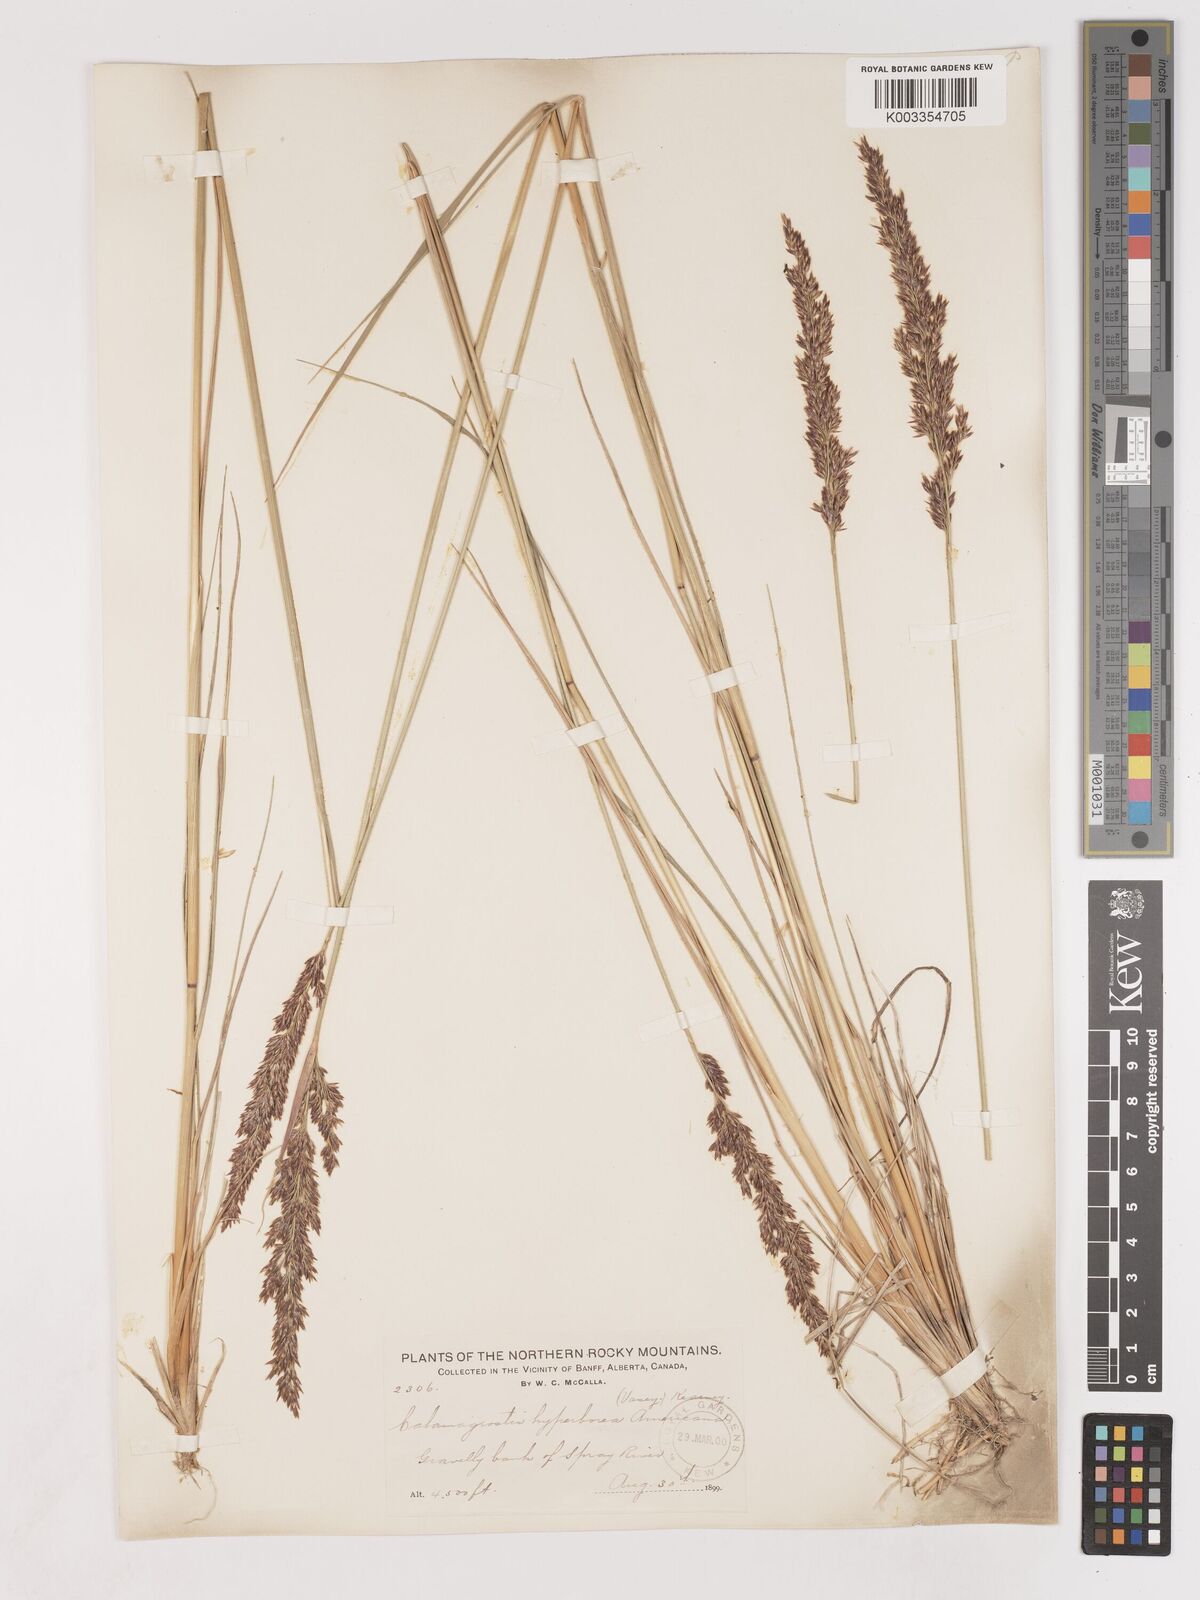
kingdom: Plantae
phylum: Tracheophyta
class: Liliopsida
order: Poales
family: Poaceae
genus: Cinnagrostis
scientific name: Cinnagrostis recta
